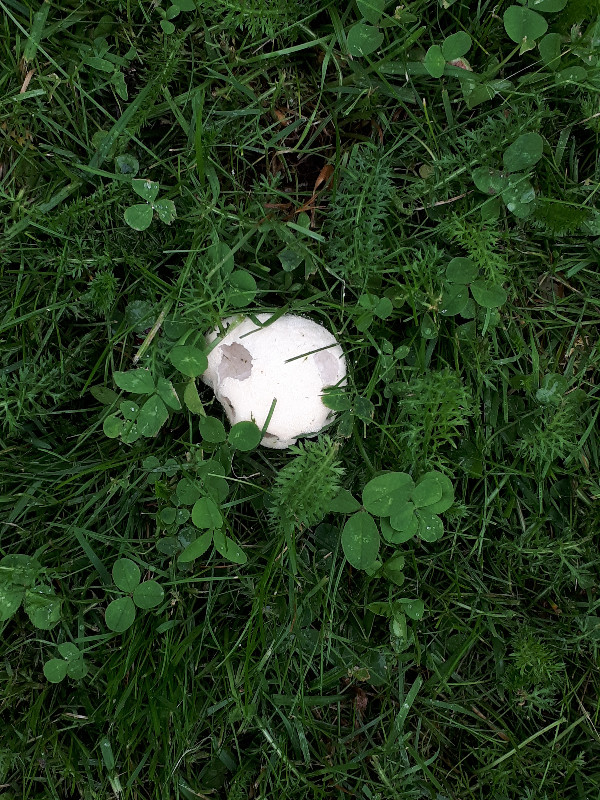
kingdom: Fungi
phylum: Basidiomycota
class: Agaricomycetes
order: Agaricales
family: Lycoperdaceae
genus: Lycoperdon
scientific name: Lycoperdon pratense
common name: flad støvbold
